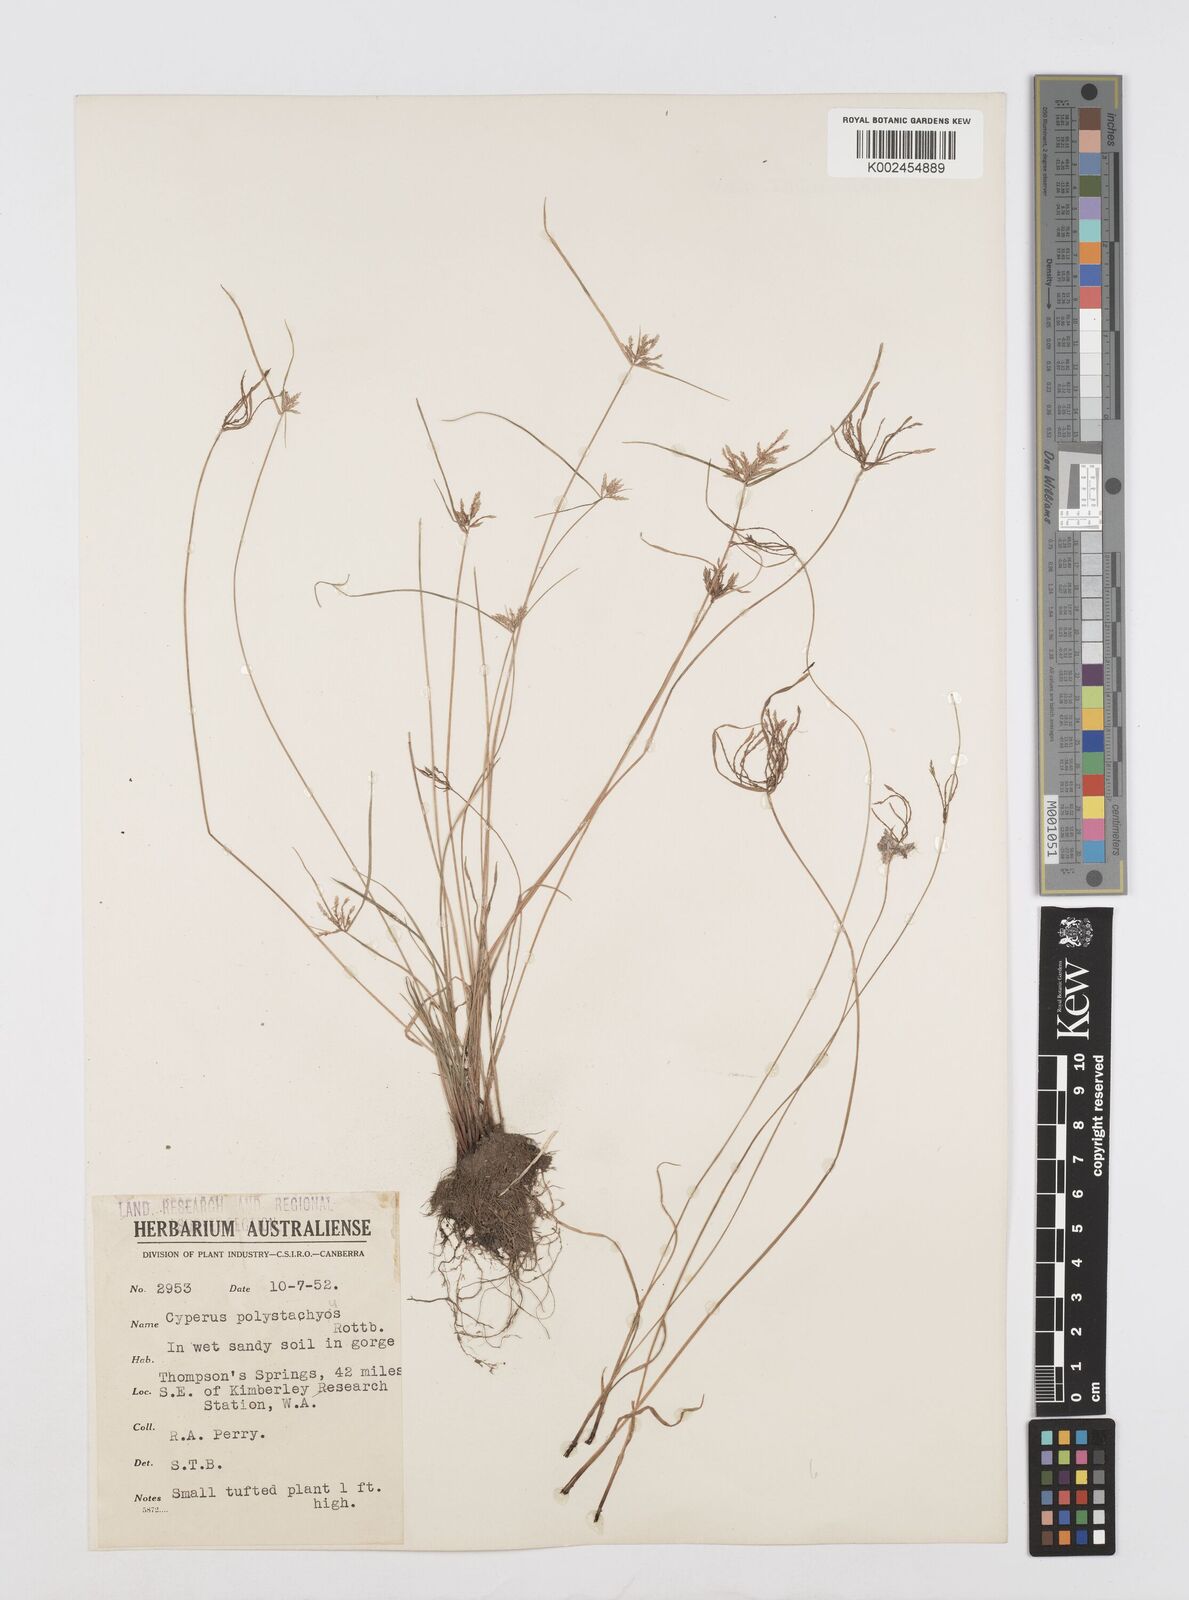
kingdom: Plantae
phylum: Tracheophyta
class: Liliopsida
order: Poales
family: Cyperaceae
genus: Cyperus
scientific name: Cyperus polystachyos
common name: Bunchy flat sedge
